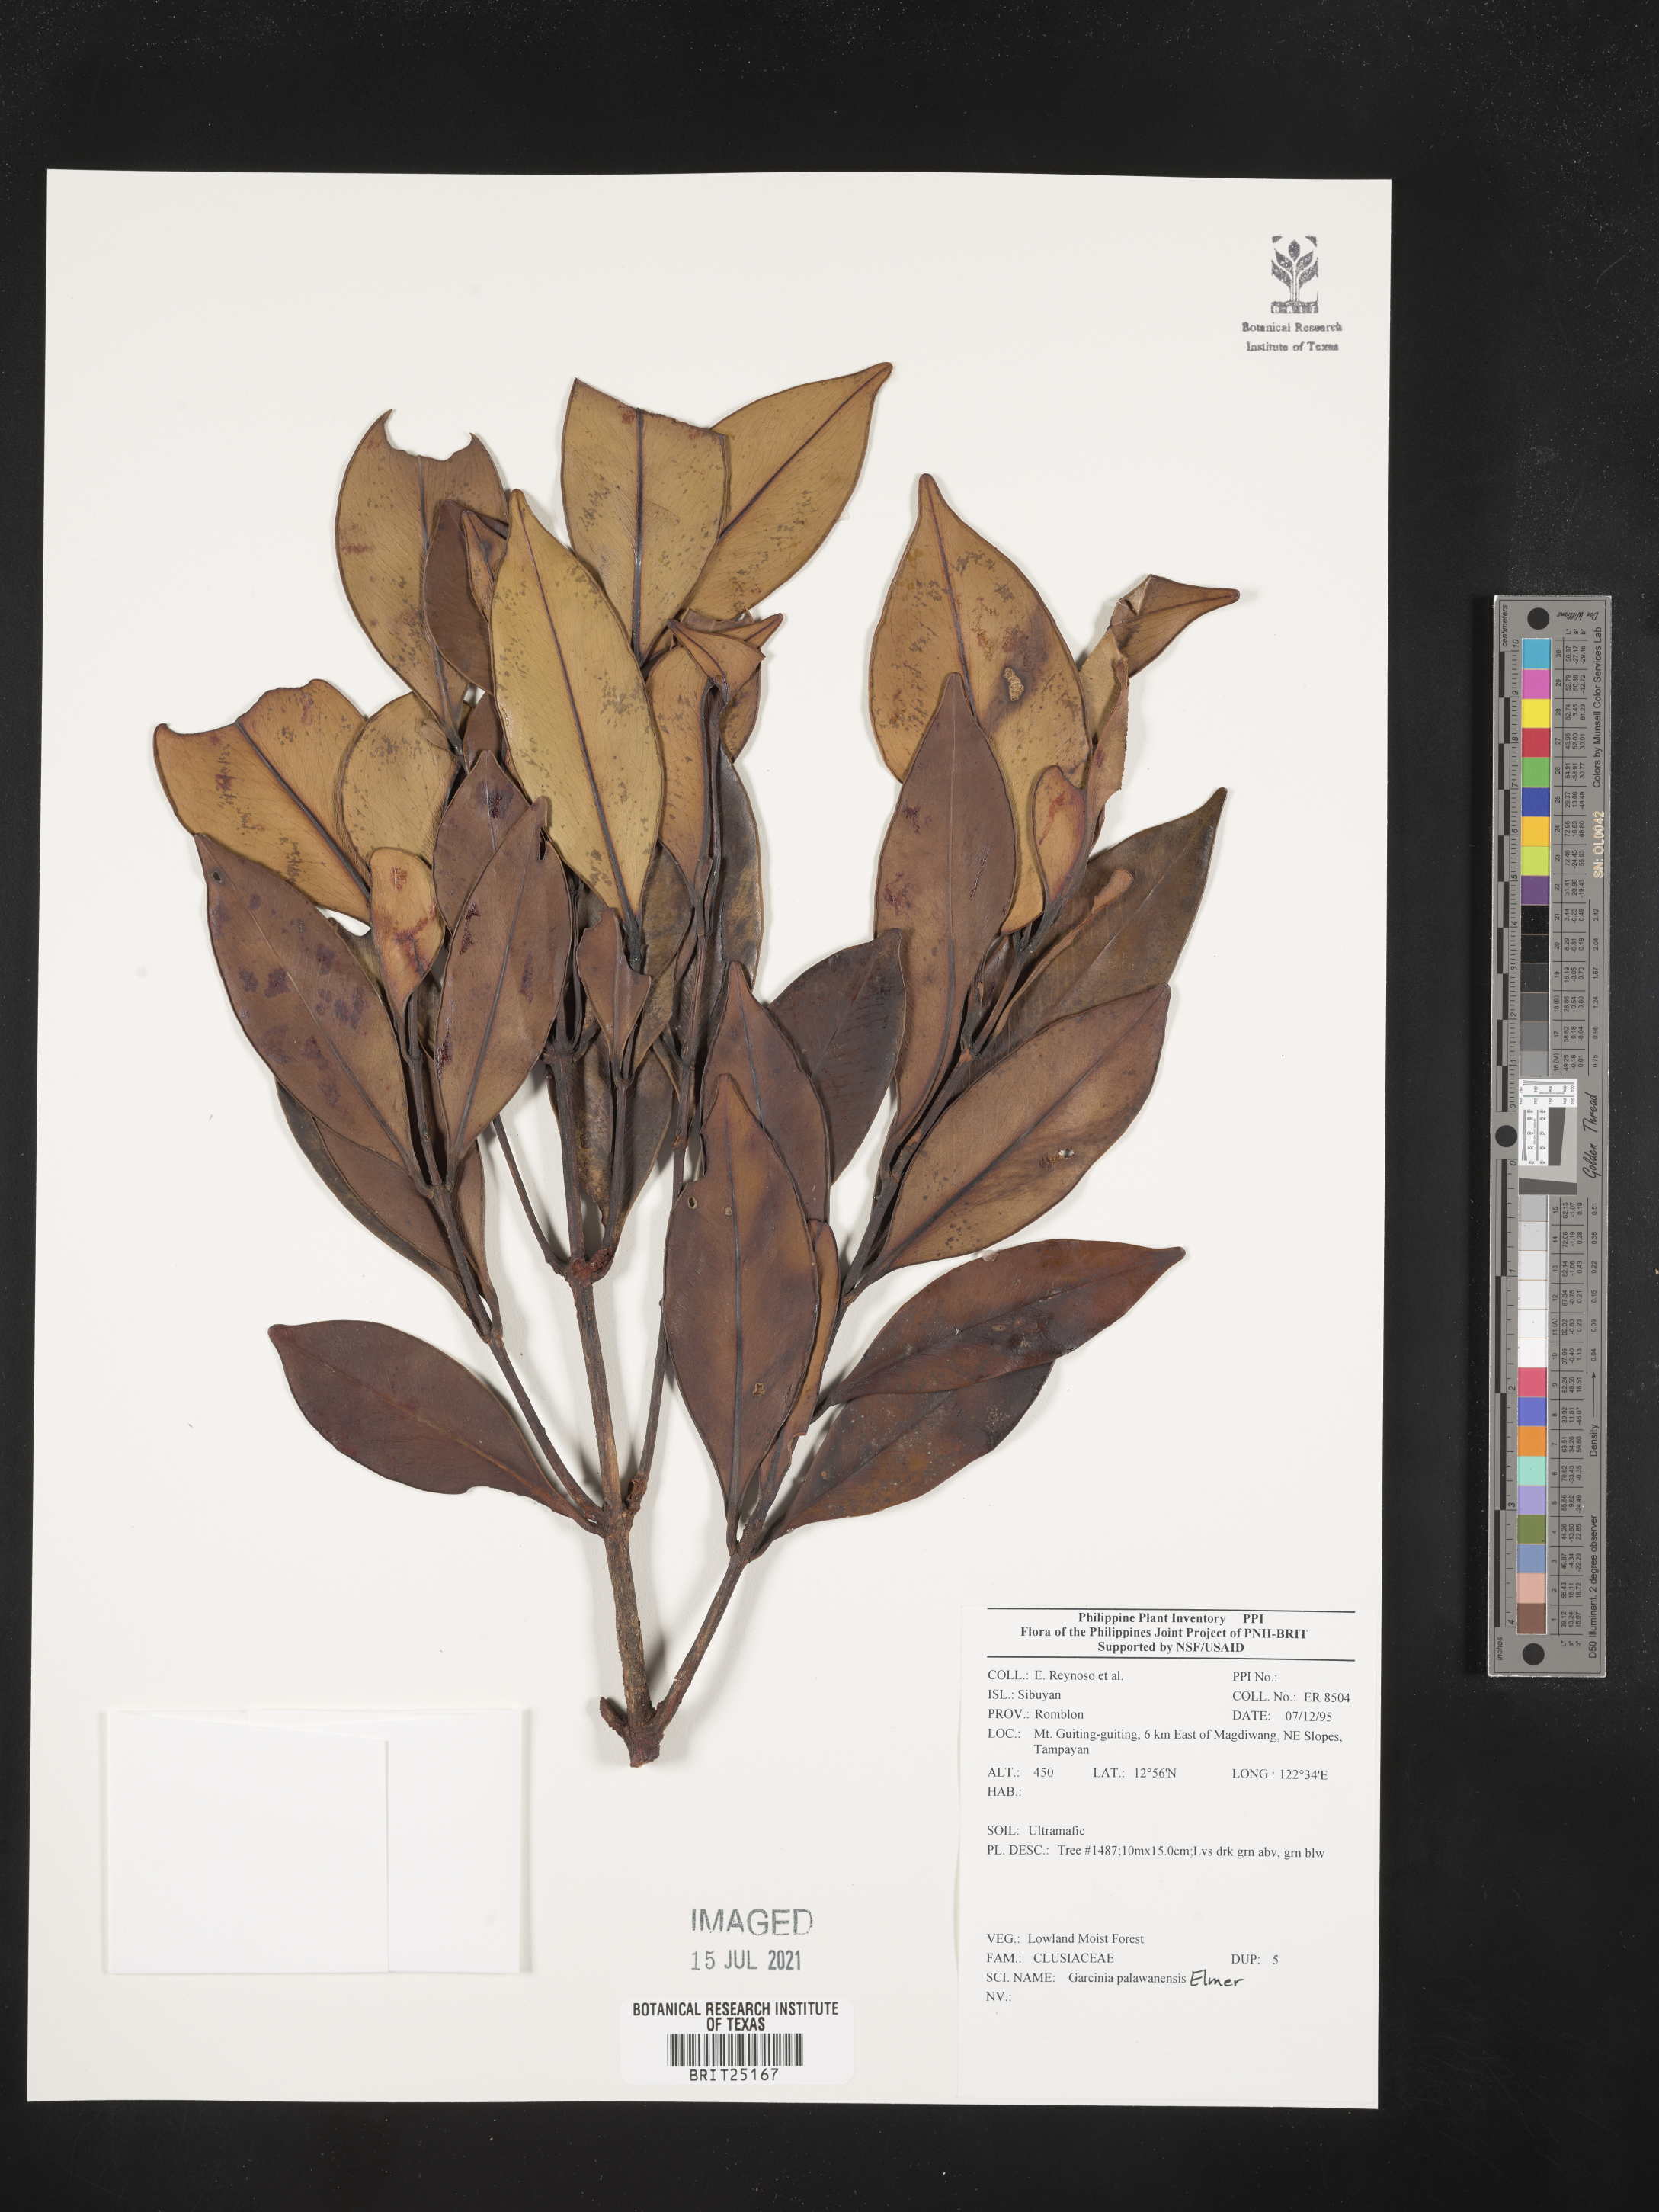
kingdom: Plantae
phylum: Tracheophyta
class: Magnoliopsida
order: Malpighiales
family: Clusiaceae
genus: Garcinia
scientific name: Garcinia dives
